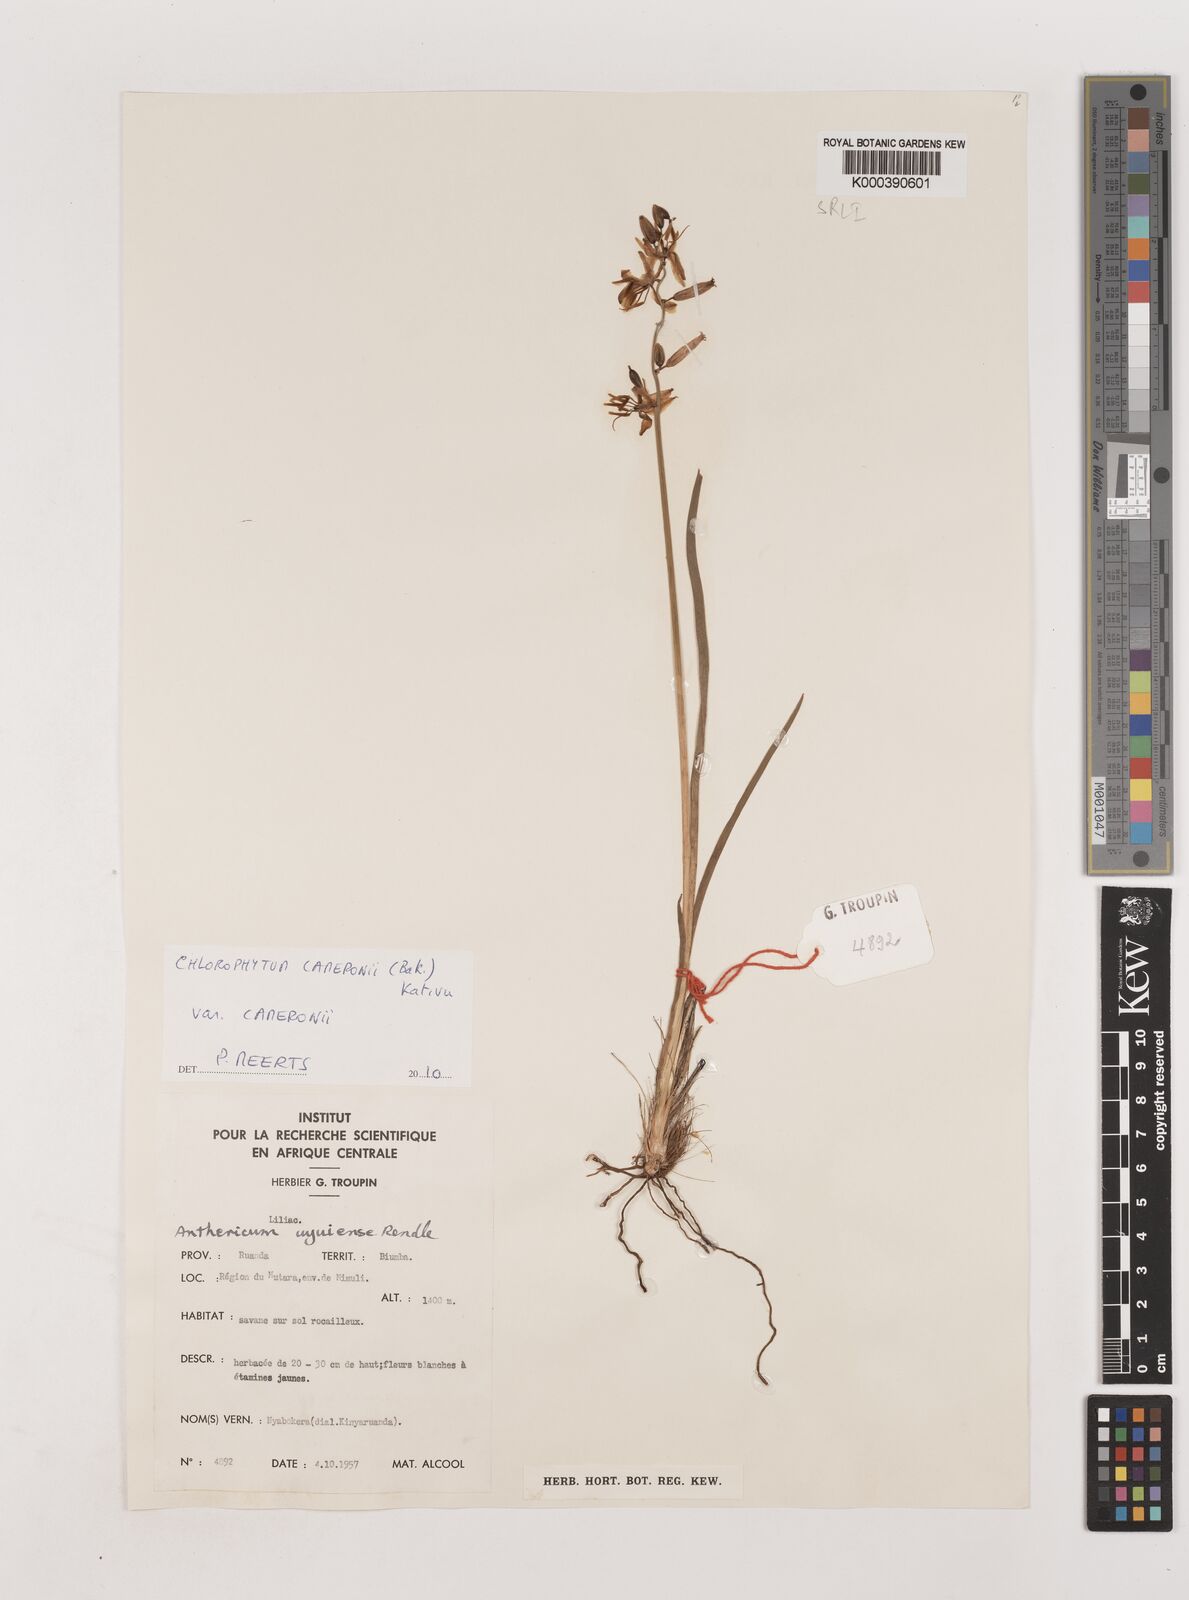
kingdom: Plantae
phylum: Tracheophyta
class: Liliopsida
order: Asparagales
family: Asparagaceae
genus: Chlorophytum
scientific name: Chlorophytum cameronii
